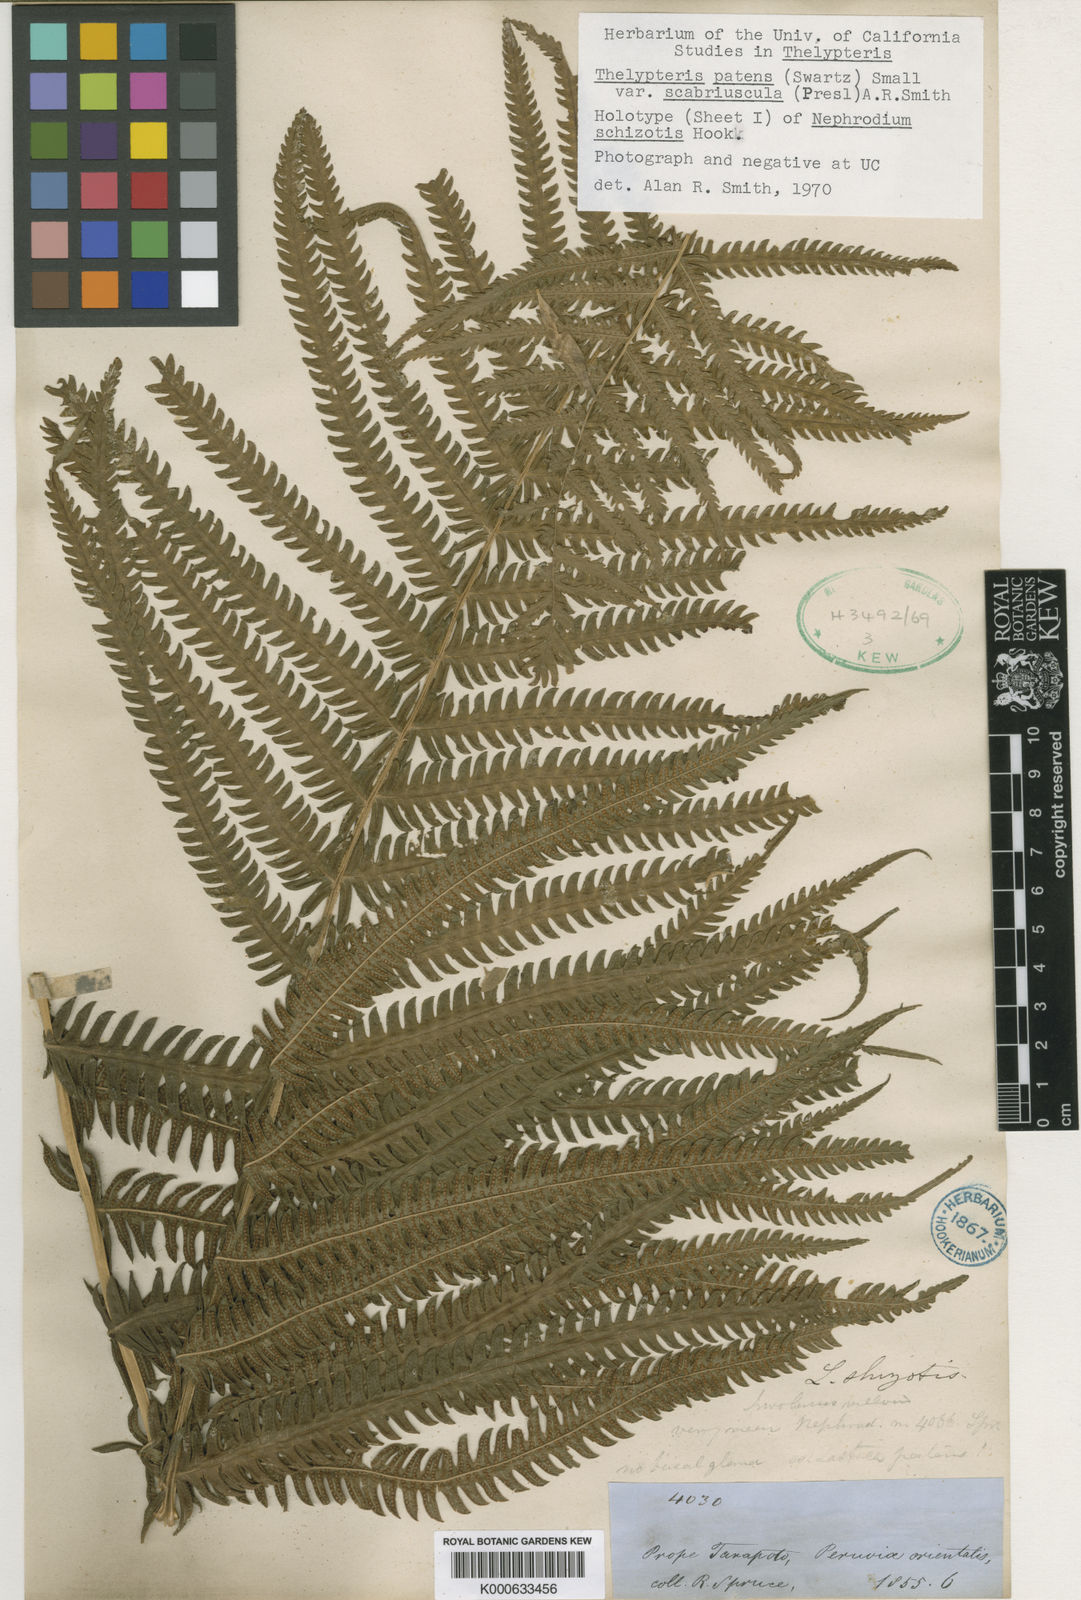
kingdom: Plantae
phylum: Tracheophyta
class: Polypodiopsida
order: Polypodiales
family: Thelypteridaceae
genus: Pelazoneuron
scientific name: Pelazoneuron patens
